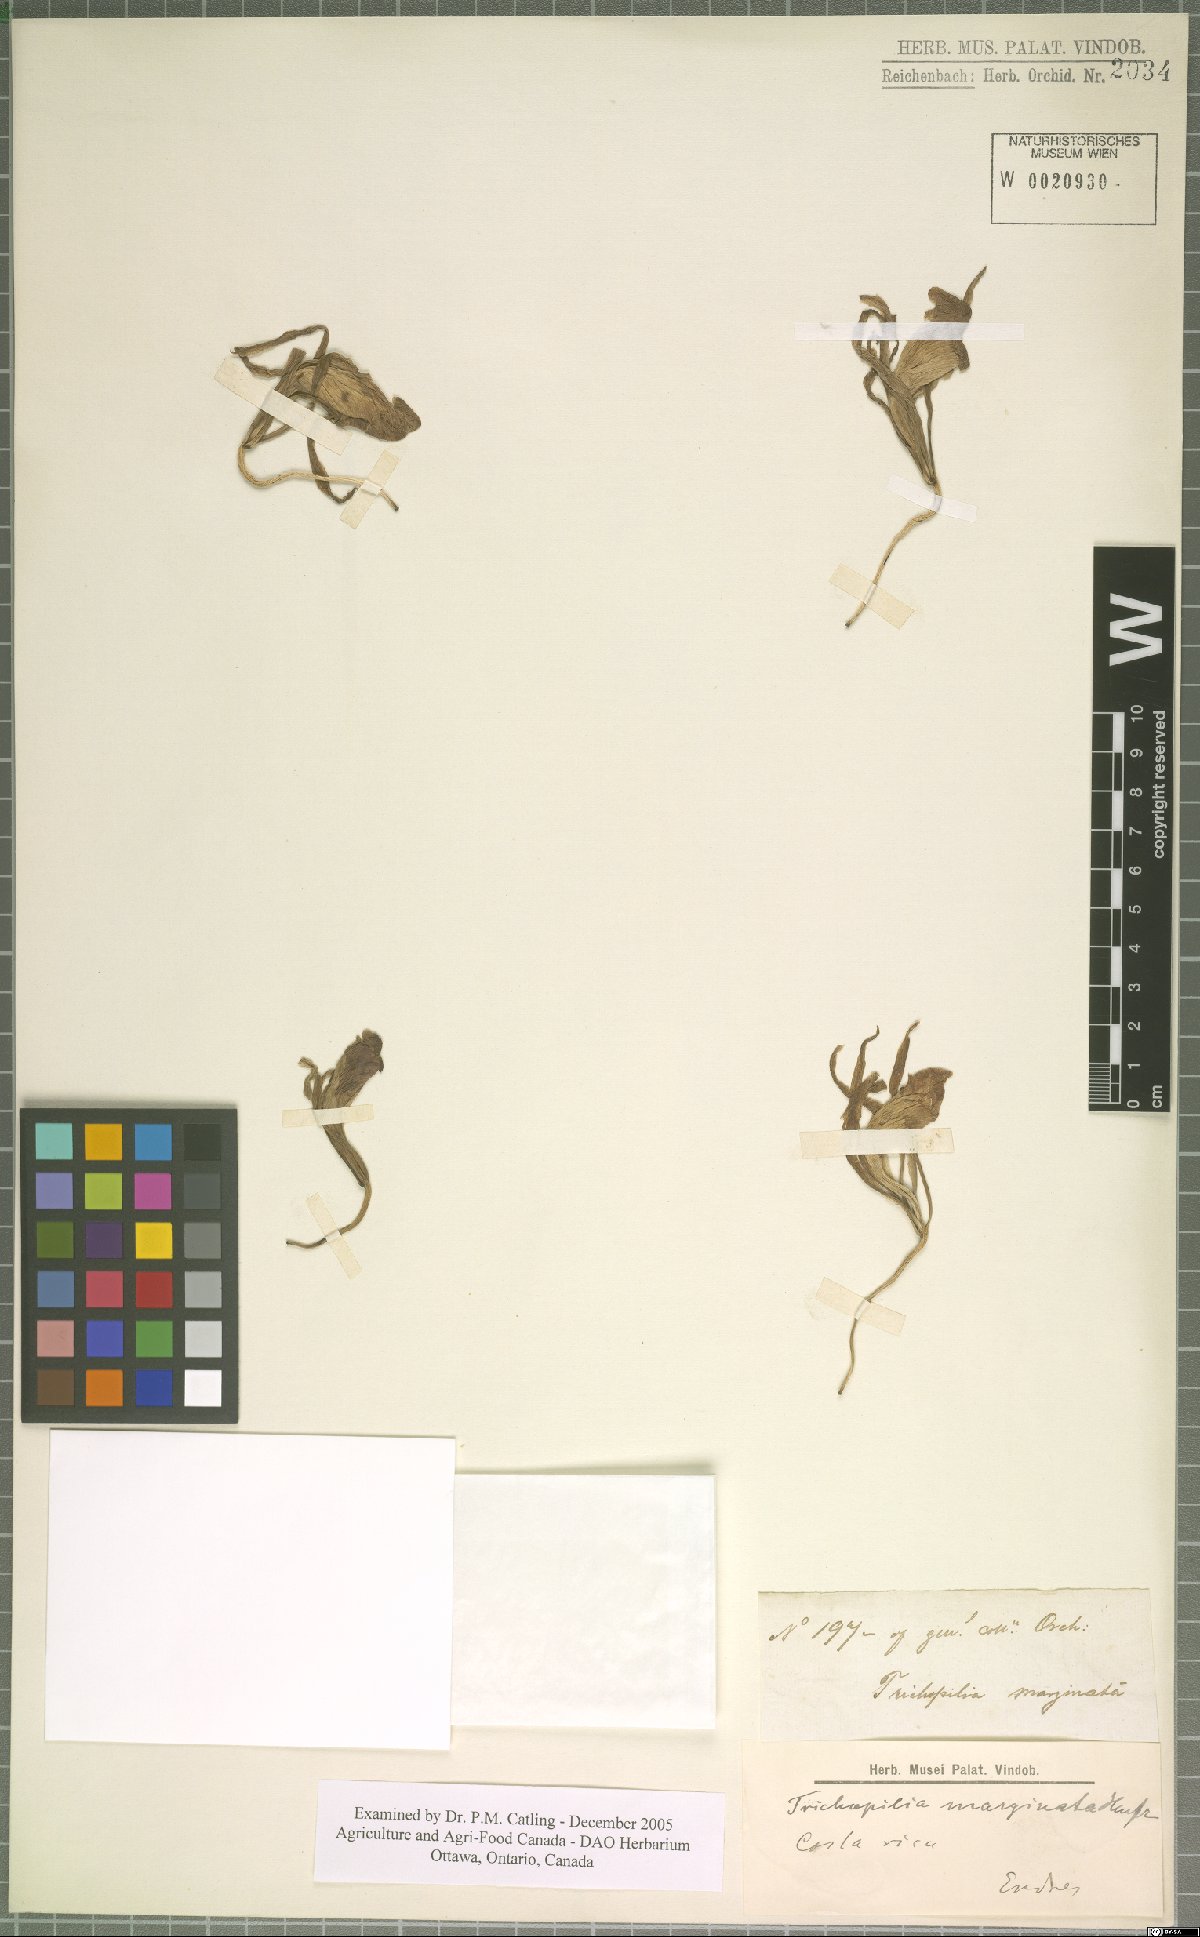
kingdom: Plantae
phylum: Tracheophyta
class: Liliopsida
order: Asparagales
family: Orchidaceae
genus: Trichopilia
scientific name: Trichopilia marginata
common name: Rimmed trichopilia
